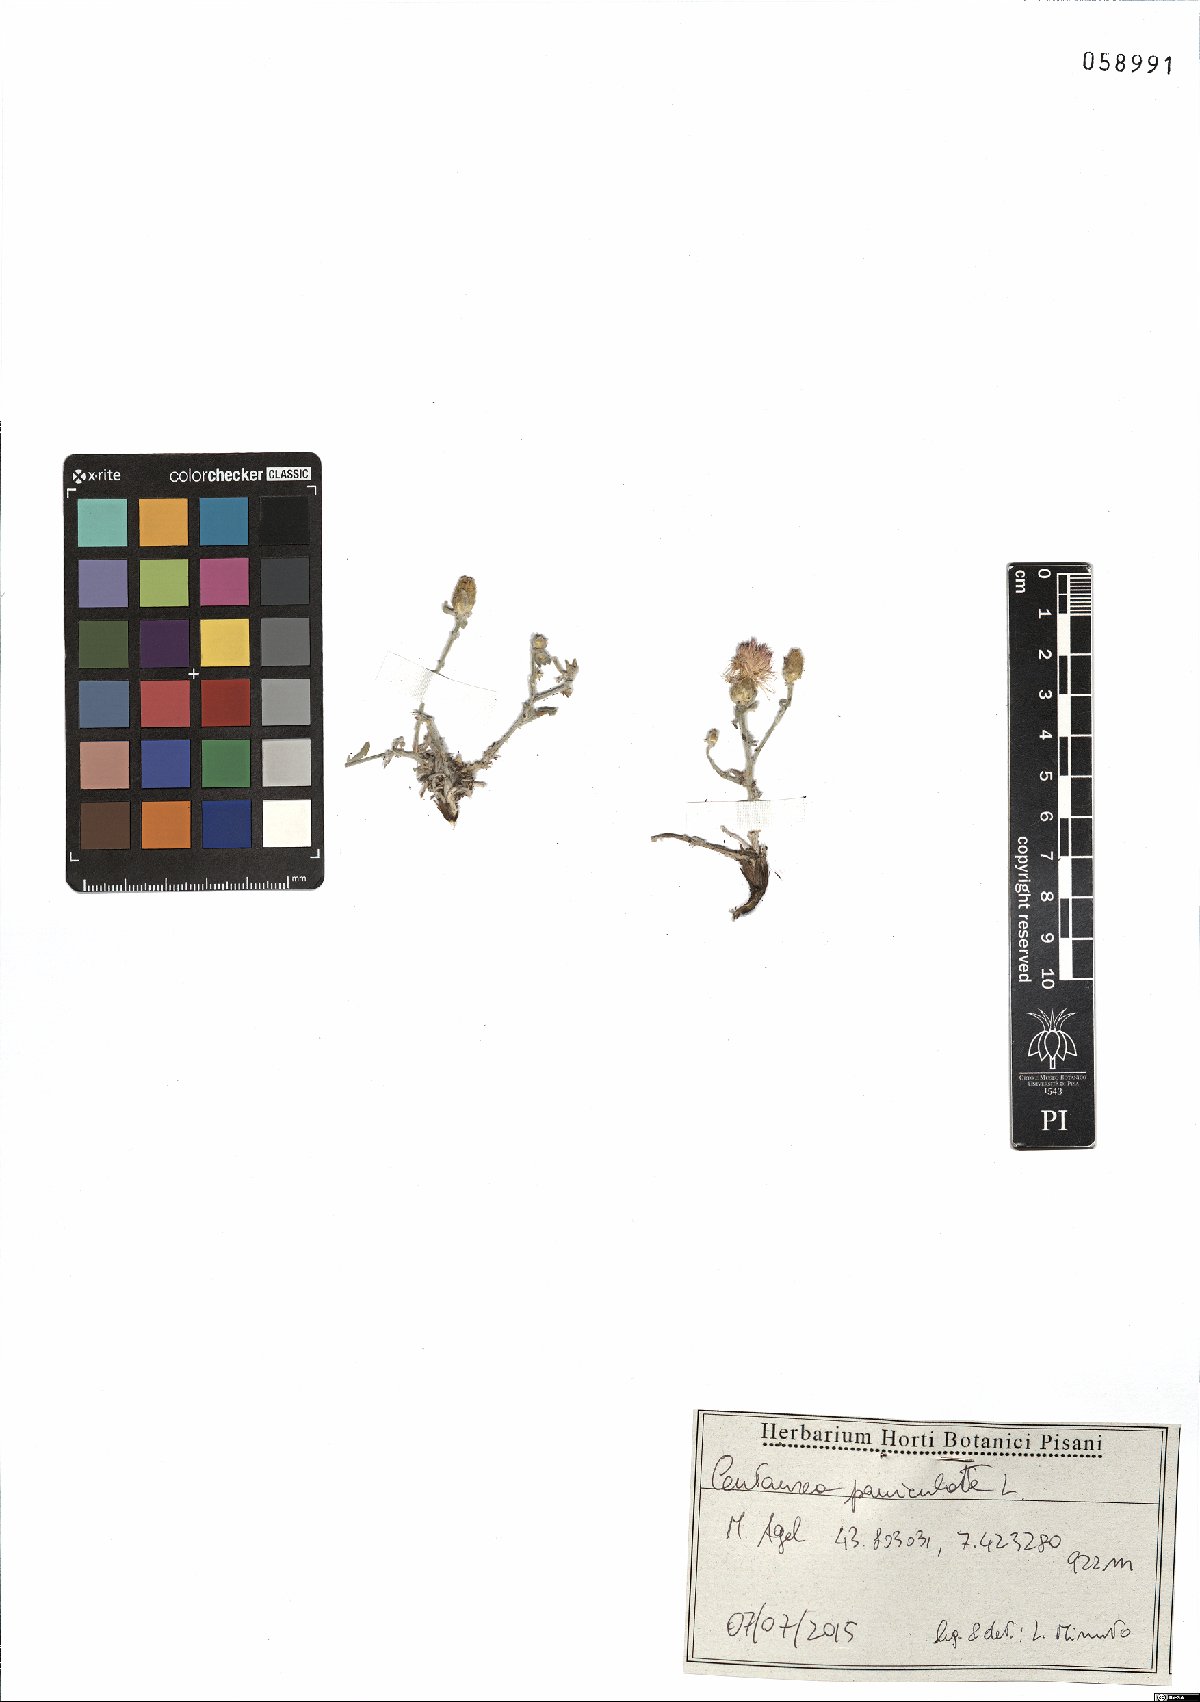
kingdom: Plantae
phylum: Tracheophyta
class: Magnoliopsida
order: Asterales
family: Asteraceae
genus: Centaurea
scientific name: Centaurea paniculata
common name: Jersey knapweed
